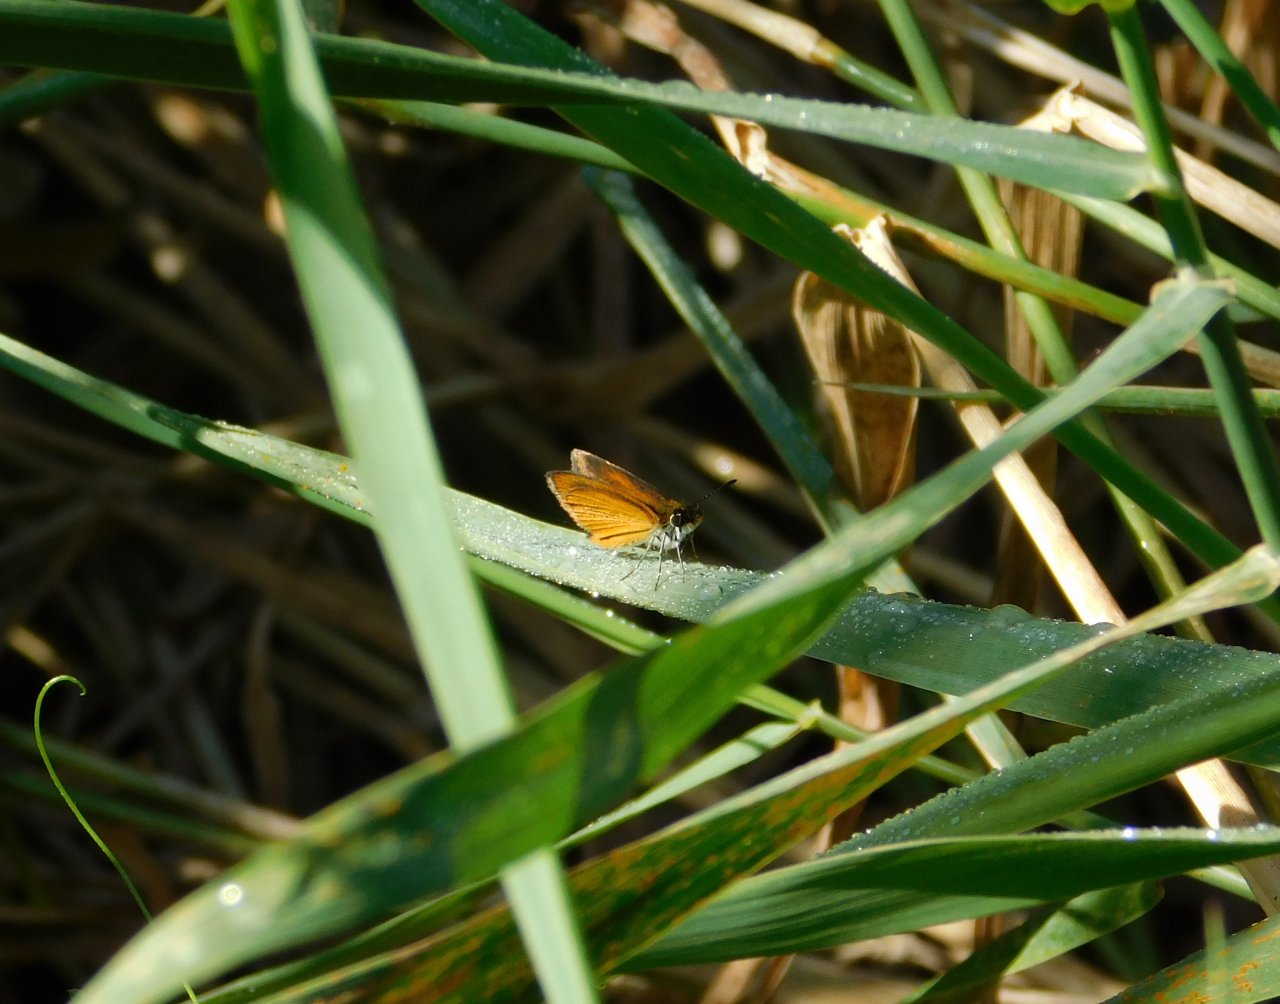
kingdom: Animalia
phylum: Arthropoda
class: Insecta
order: Lepidoptera
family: Hesperiidae
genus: Ancyloxypha
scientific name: Ancyloxypha numitor
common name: Least Skipper
